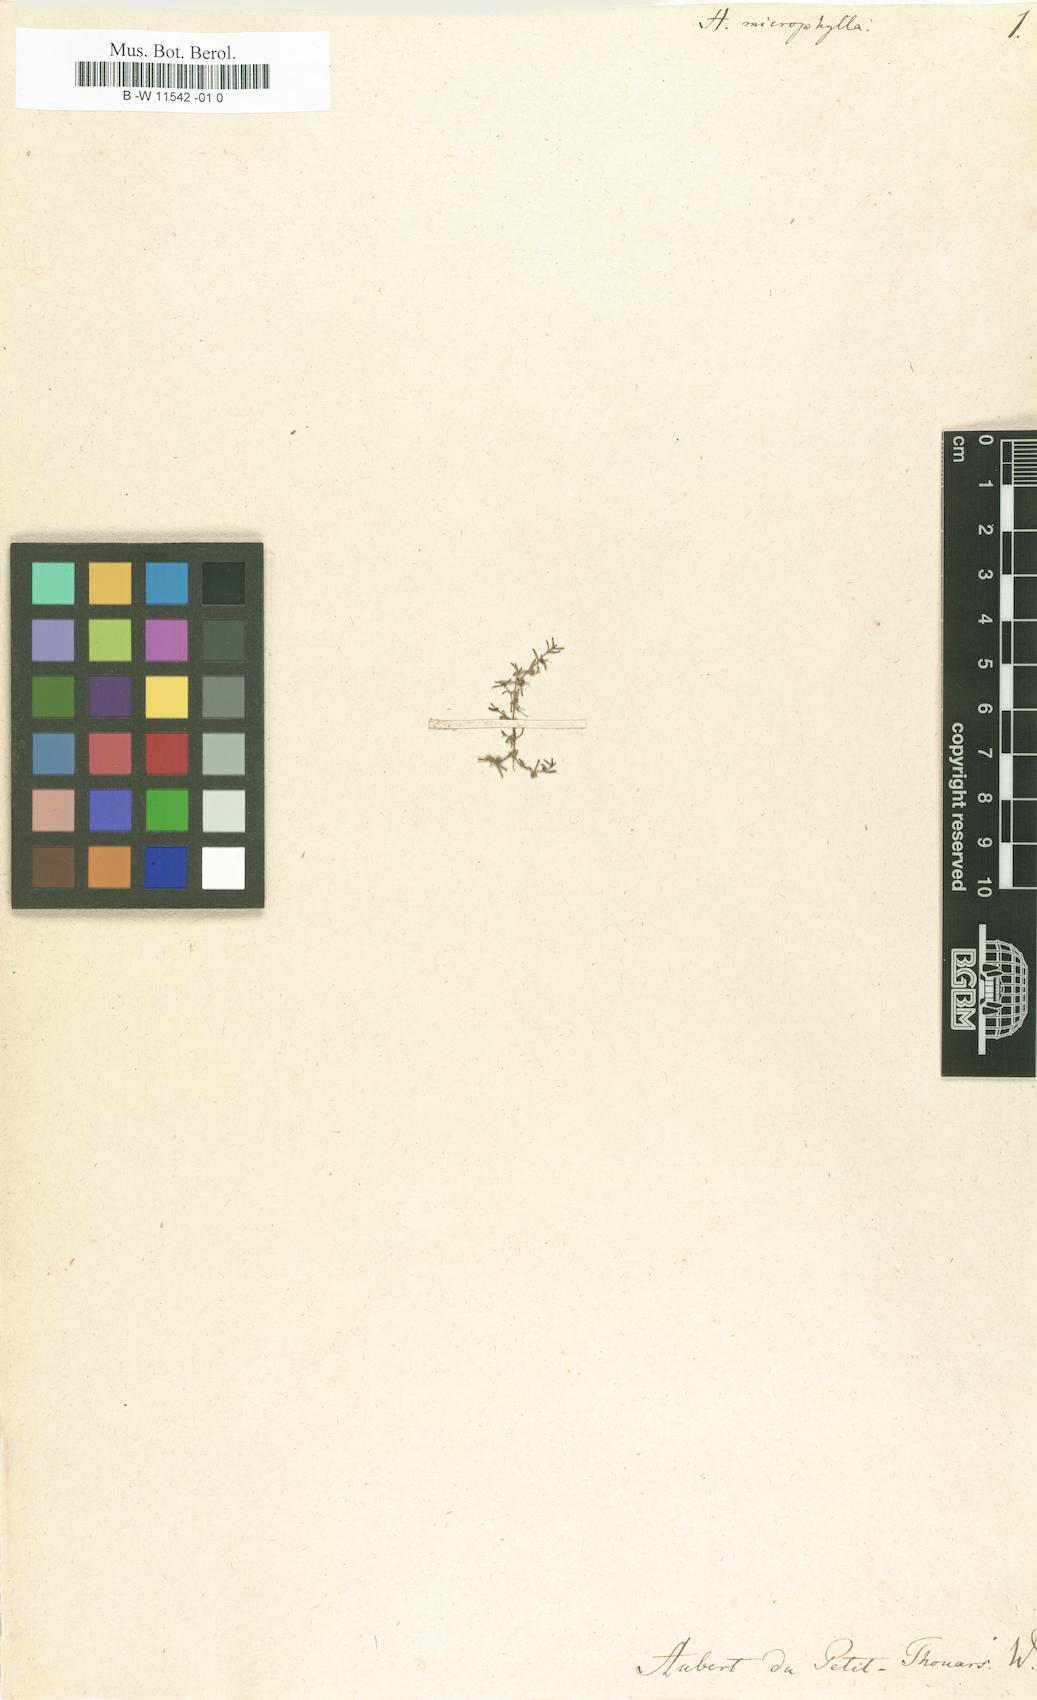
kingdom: Plantae
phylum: Tracheophyta
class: Magnoliopsida
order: Lamiales
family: Scrophulariaceae
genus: Herpestes
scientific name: Herpestes
